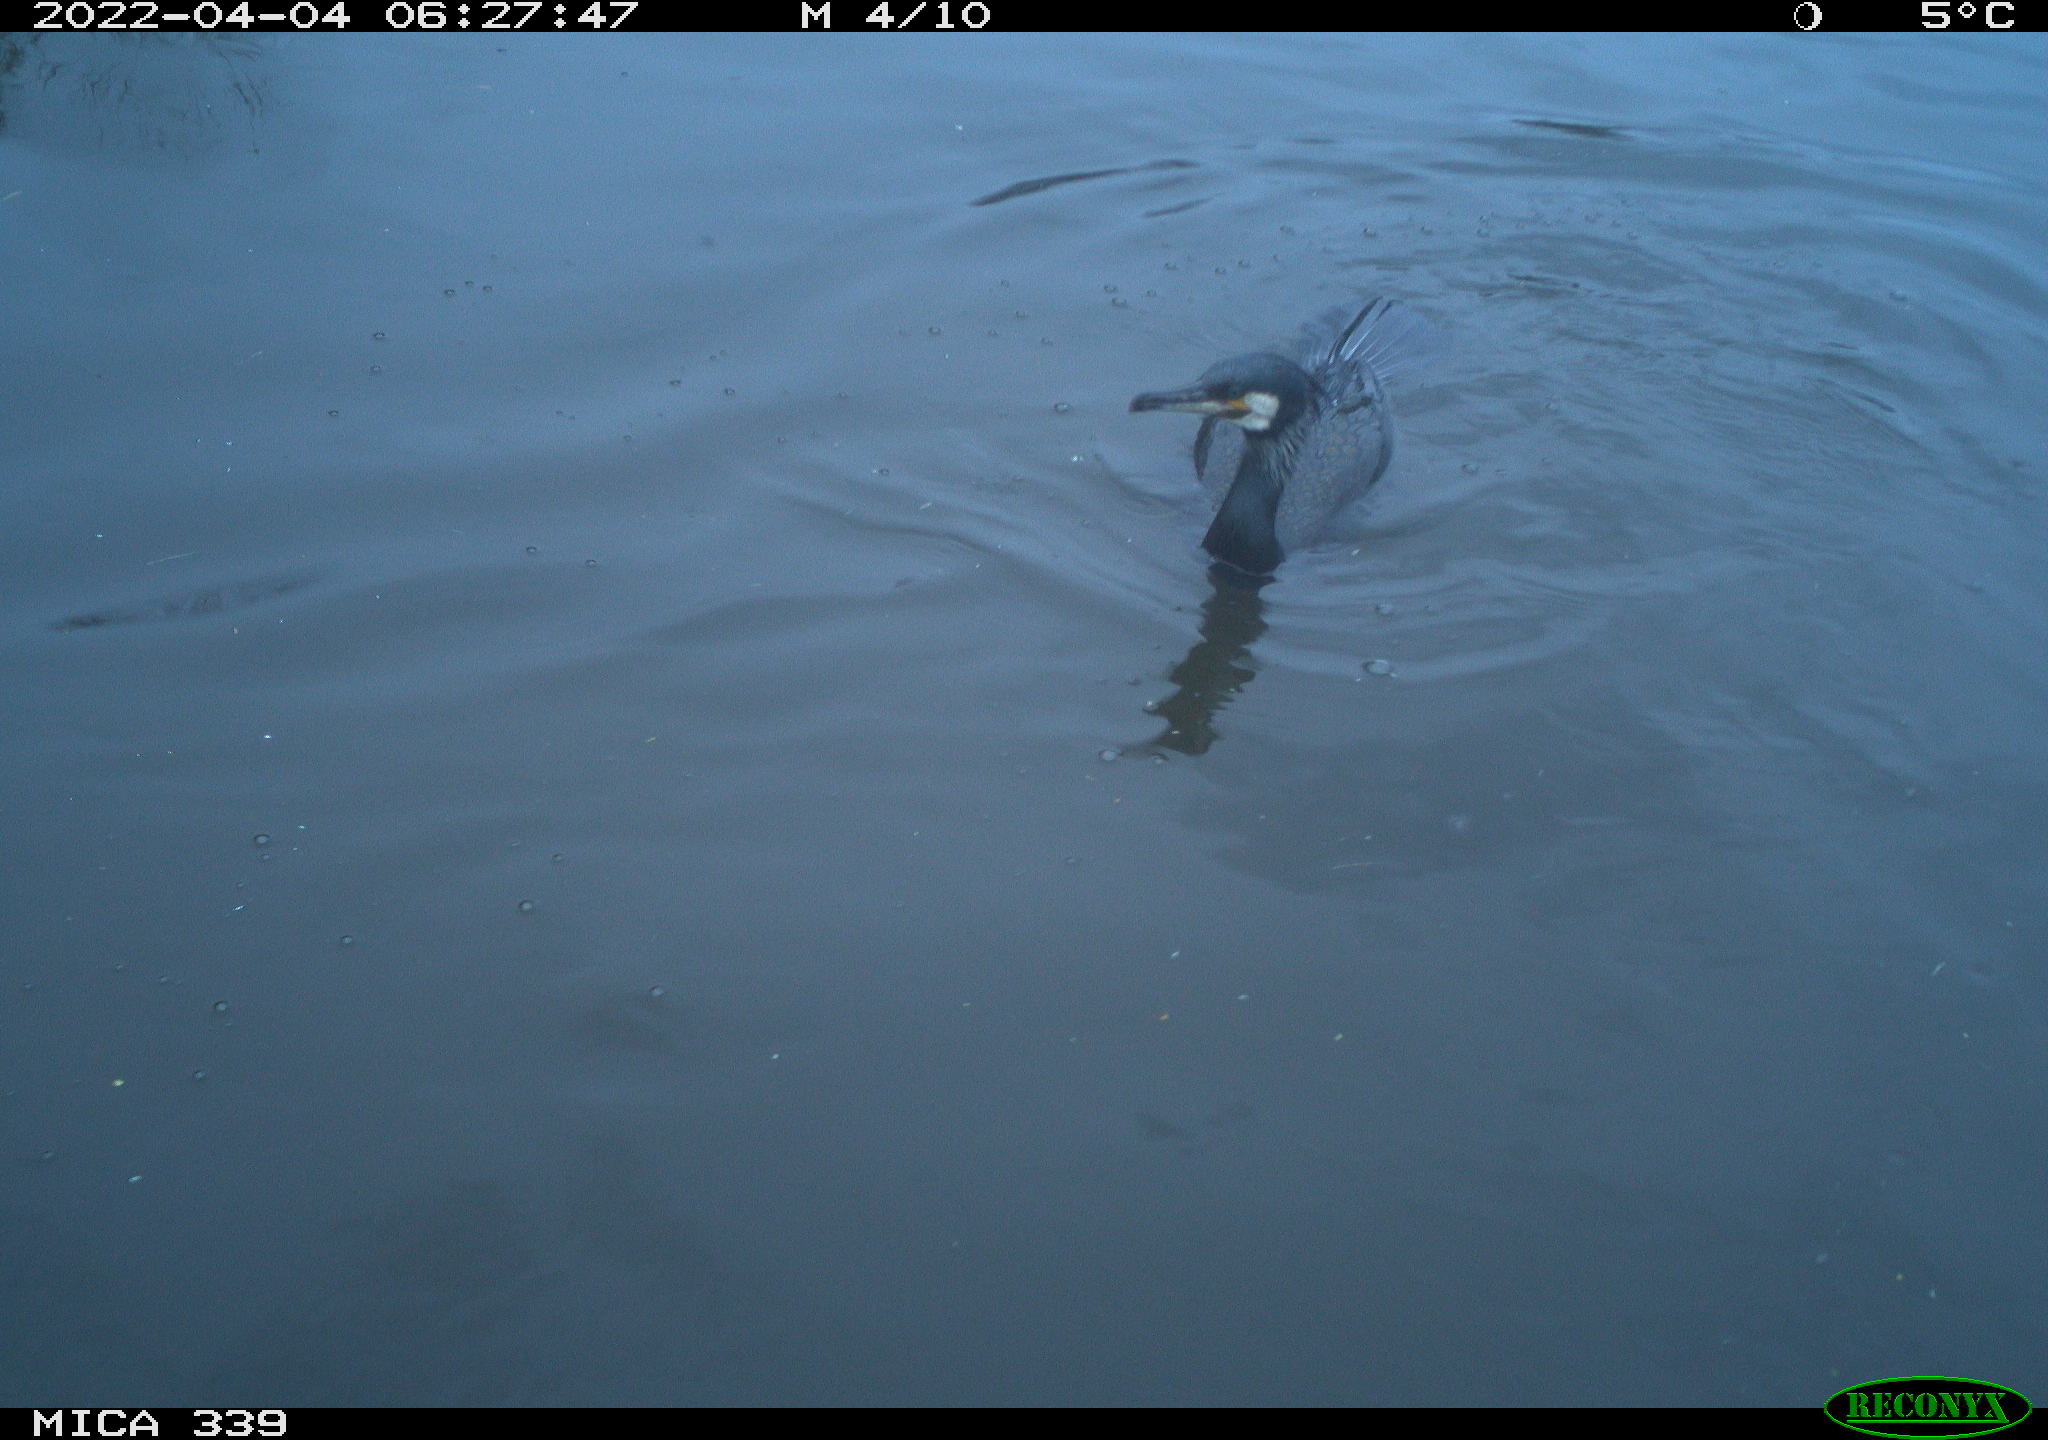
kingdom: Animalia
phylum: Chordata
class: Aves
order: Suliformes
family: Phalacrocoracidae
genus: Phalacrocorax
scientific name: Phalacrocorax carbo
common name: Great cormorant
